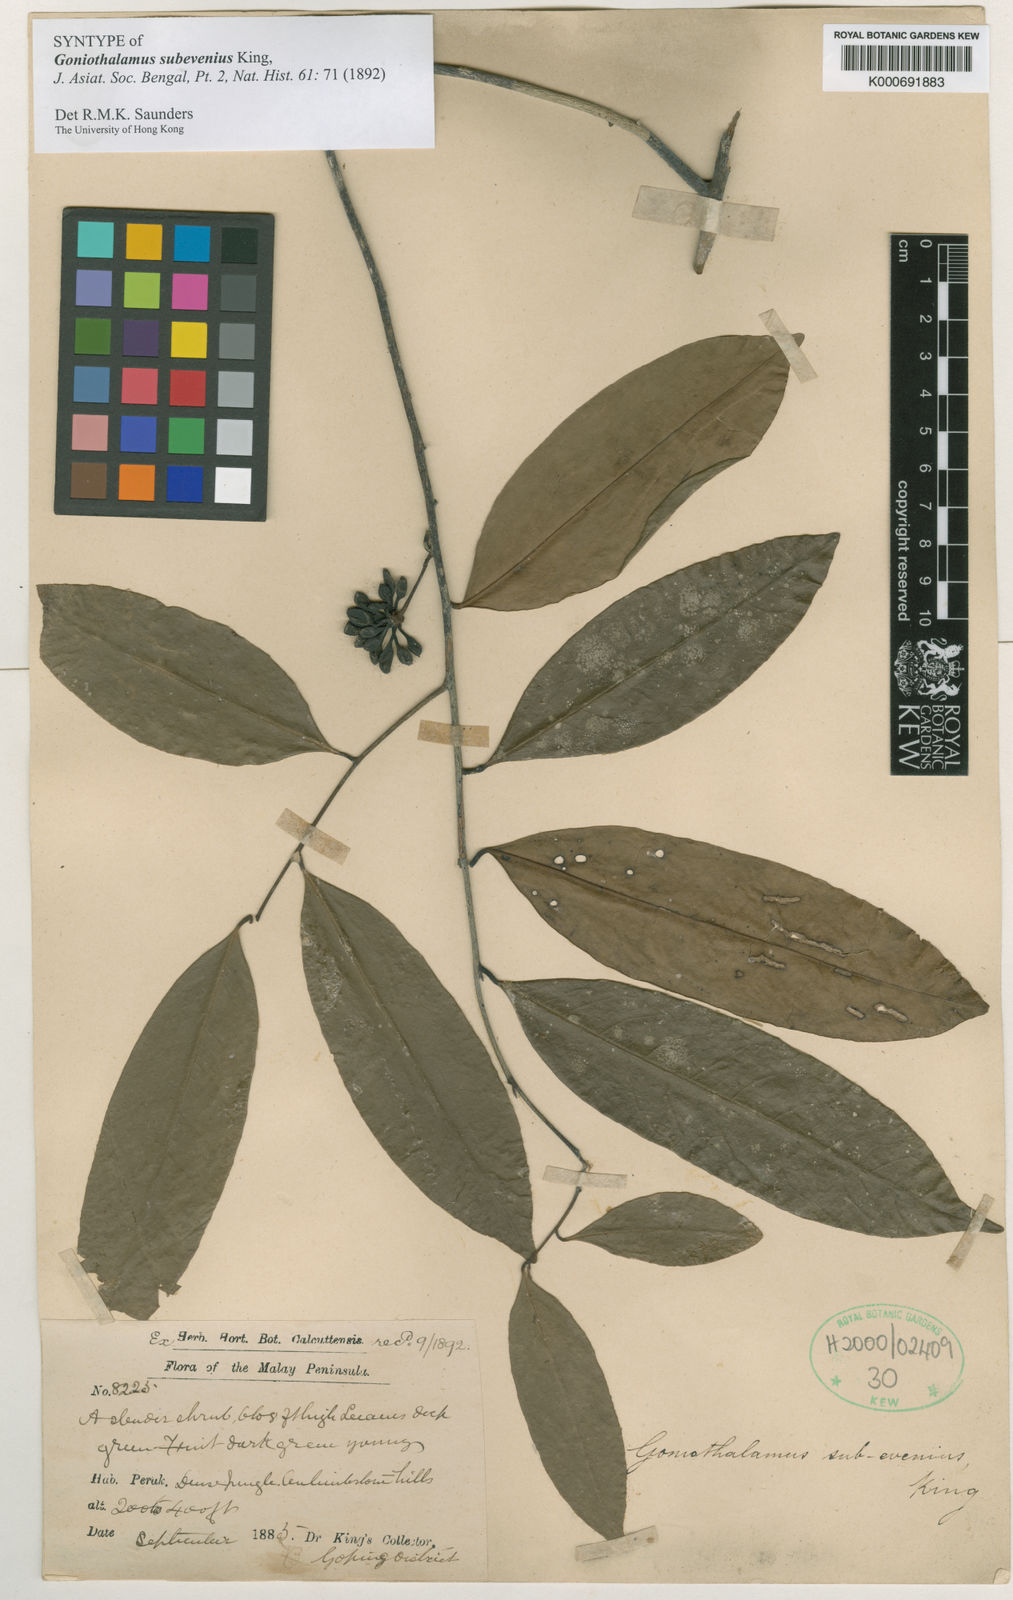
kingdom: Plantae
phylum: Tracheophyta
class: Magnoliopsida
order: Magnoliales
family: Annonaceae
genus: Goniothalamus
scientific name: Goniothalamus subevenius
